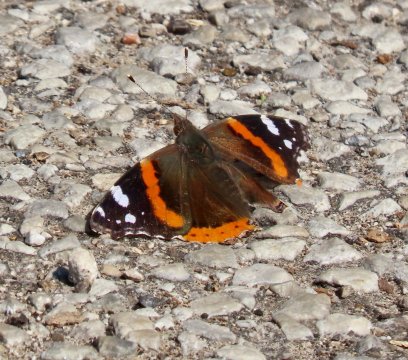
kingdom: Animalia
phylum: Arthropoda
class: Insecta
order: Lepidoptera
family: Nymphalidae
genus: Vanessa
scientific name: Vanessa atalanta
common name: Red Admiral
